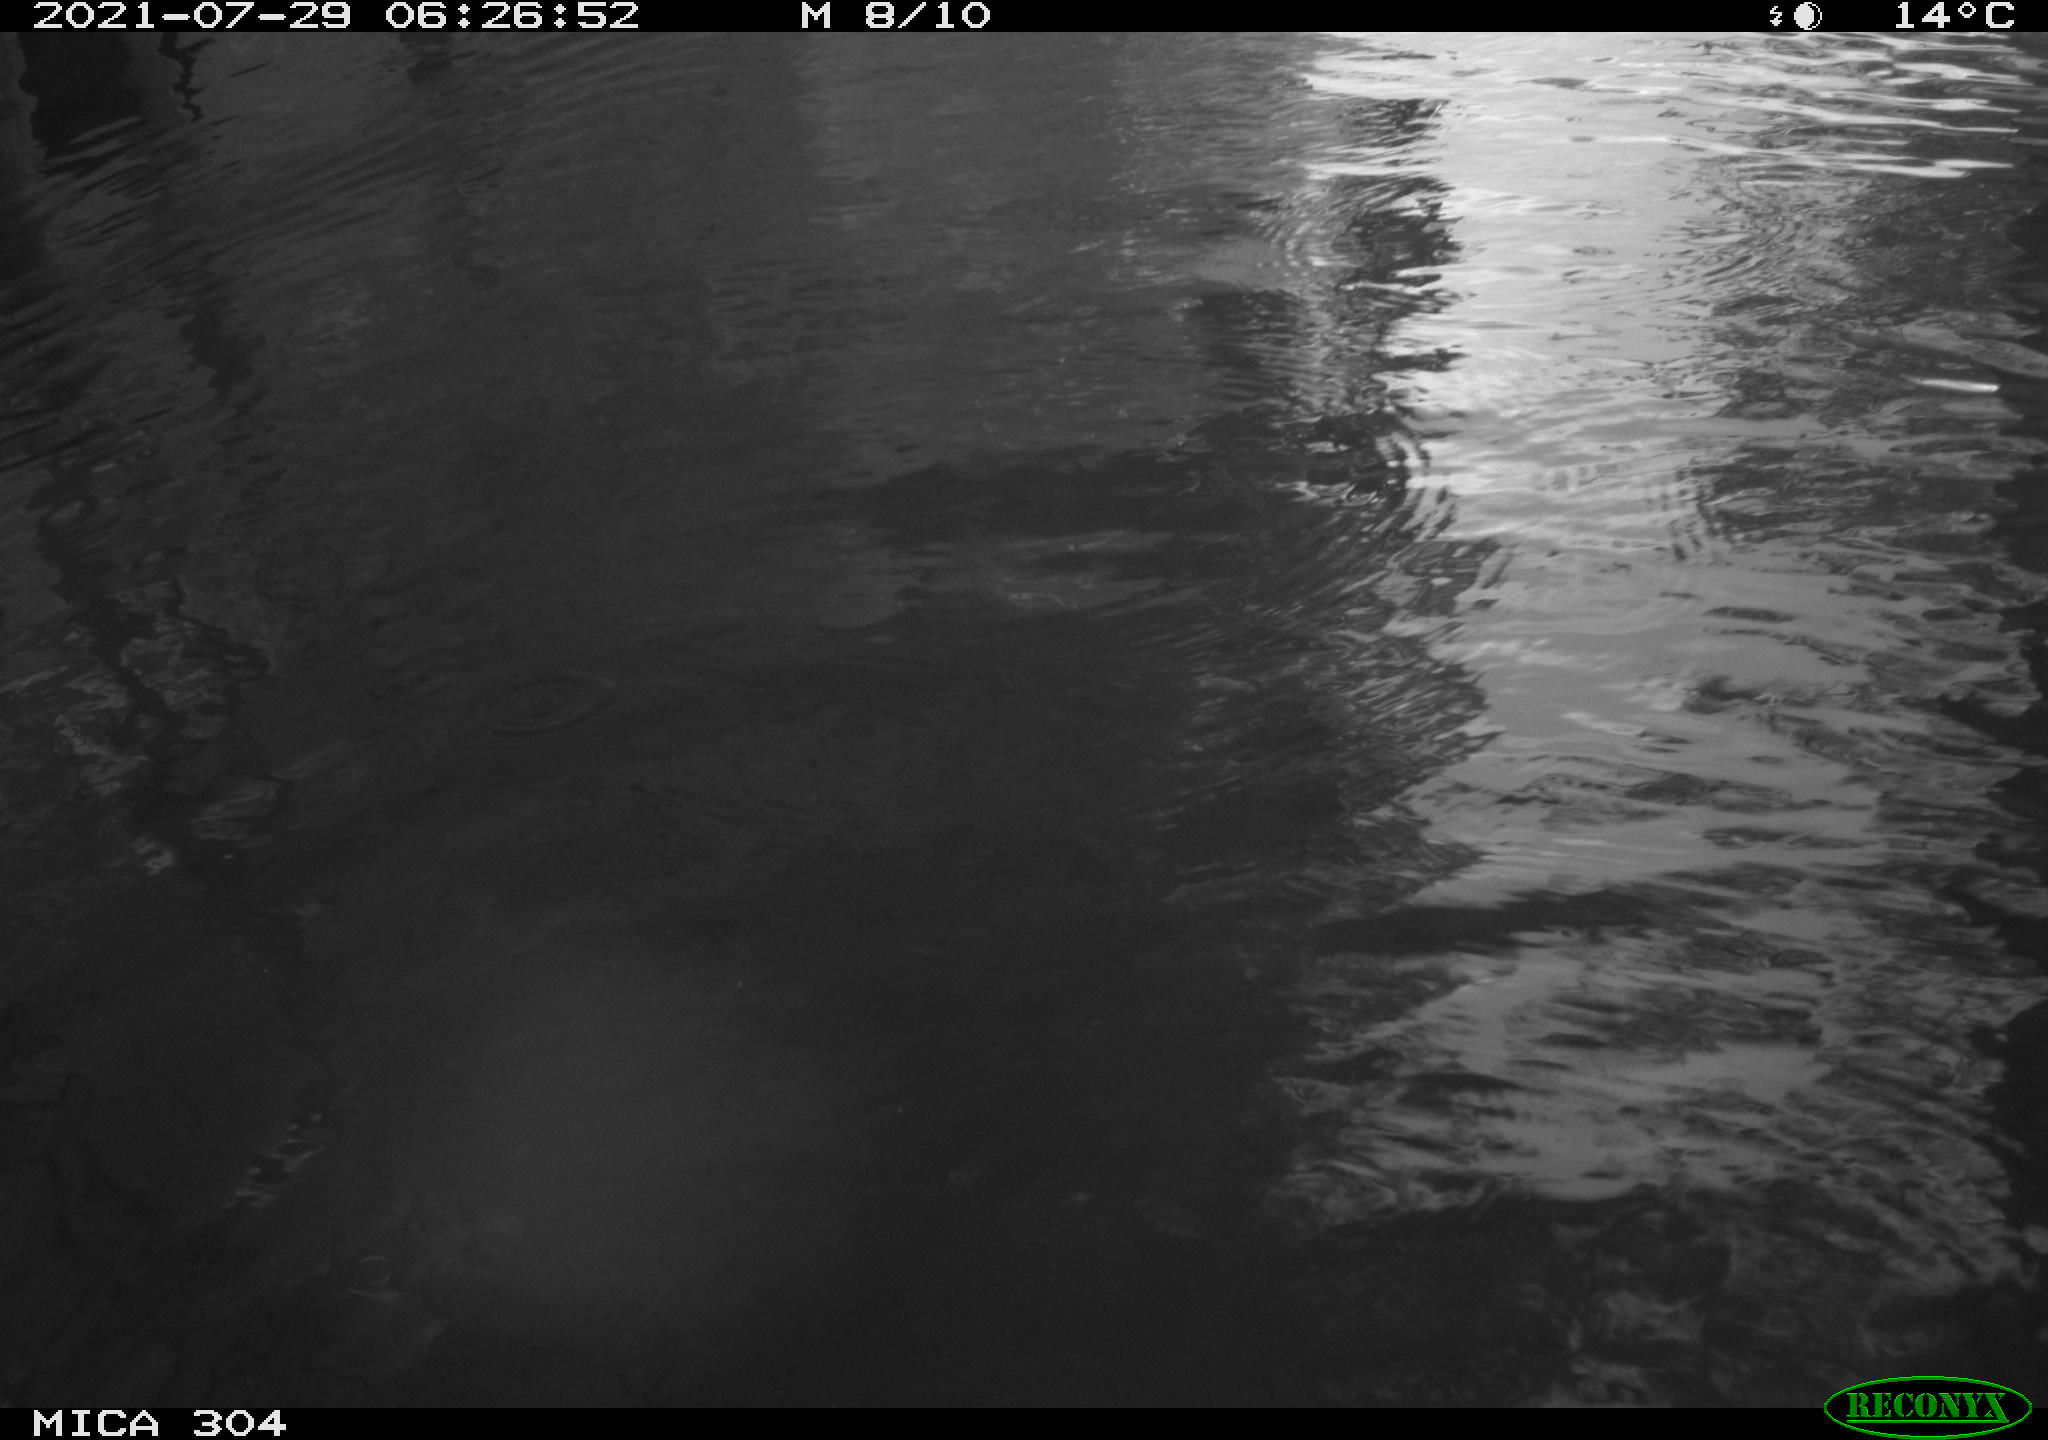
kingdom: Animalia
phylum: Chordata
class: Aves
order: Anseriformes
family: Anatidae
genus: Anas
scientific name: Anas platyrhynchos
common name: Mallard
